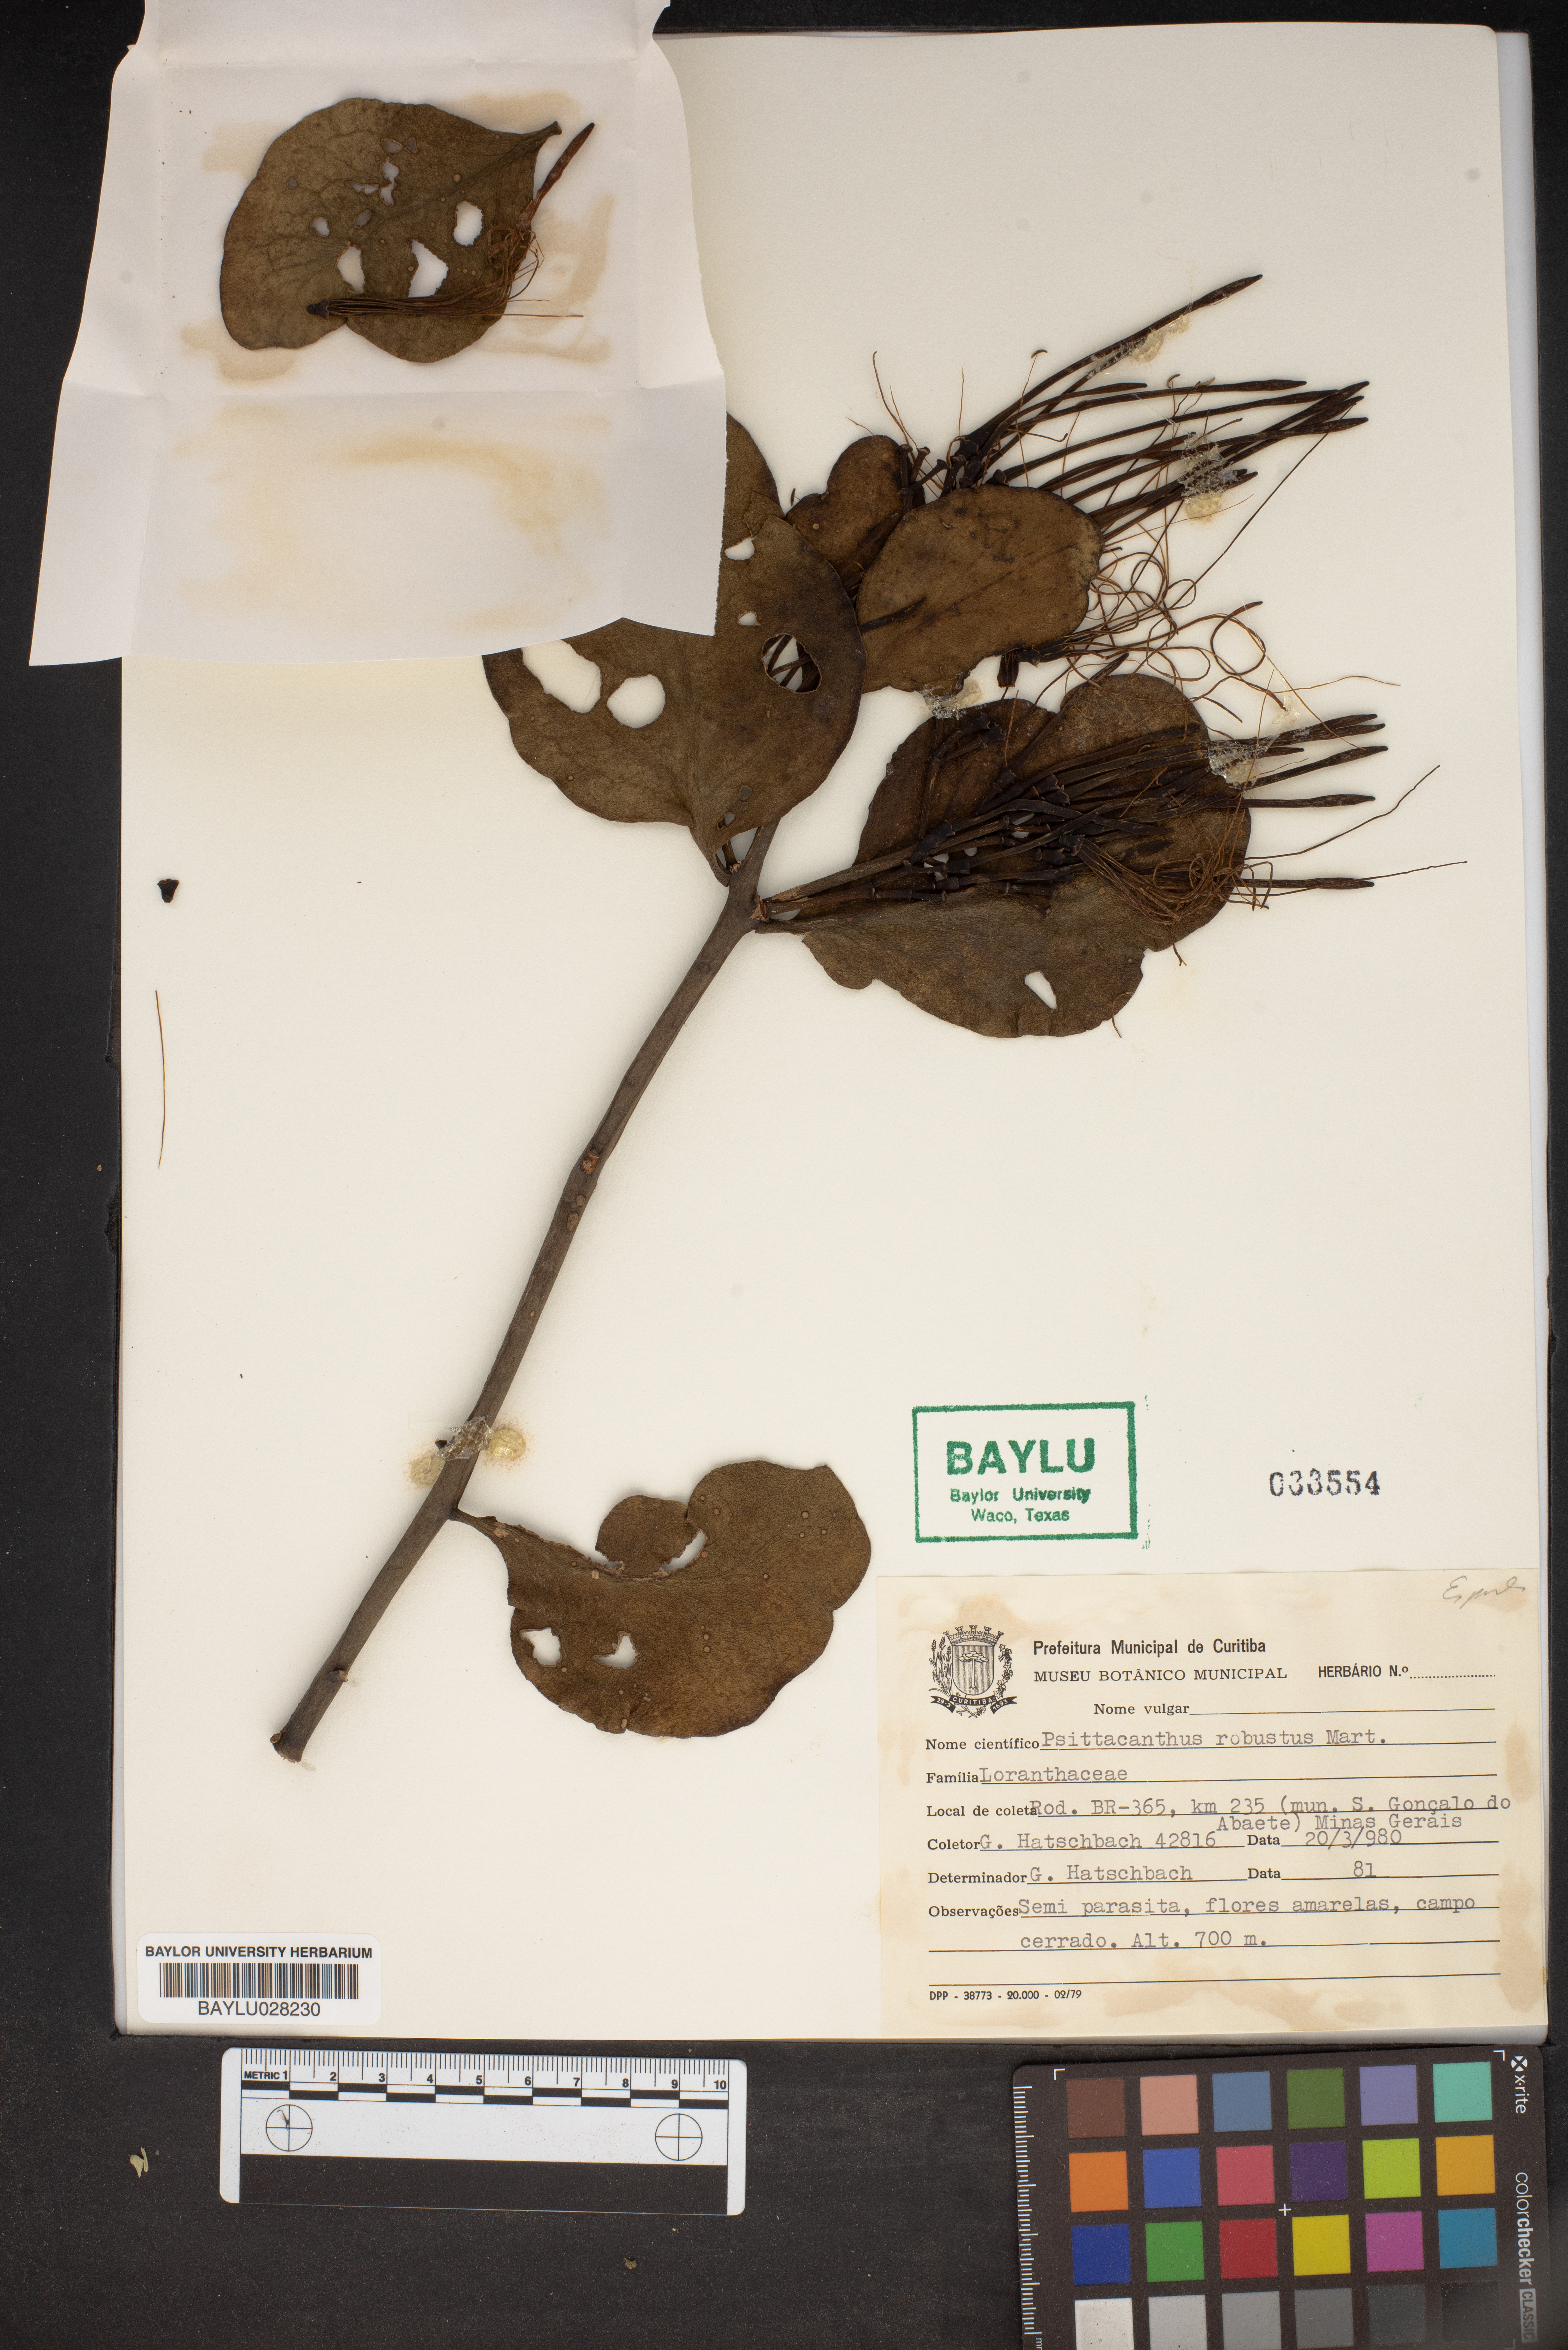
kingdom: Plantae
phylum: Tracheophyta
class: Magnoliopsida
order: Santalales
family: Loranthaceae
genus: Psittacanthus
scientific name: Psittacanthus robustus
